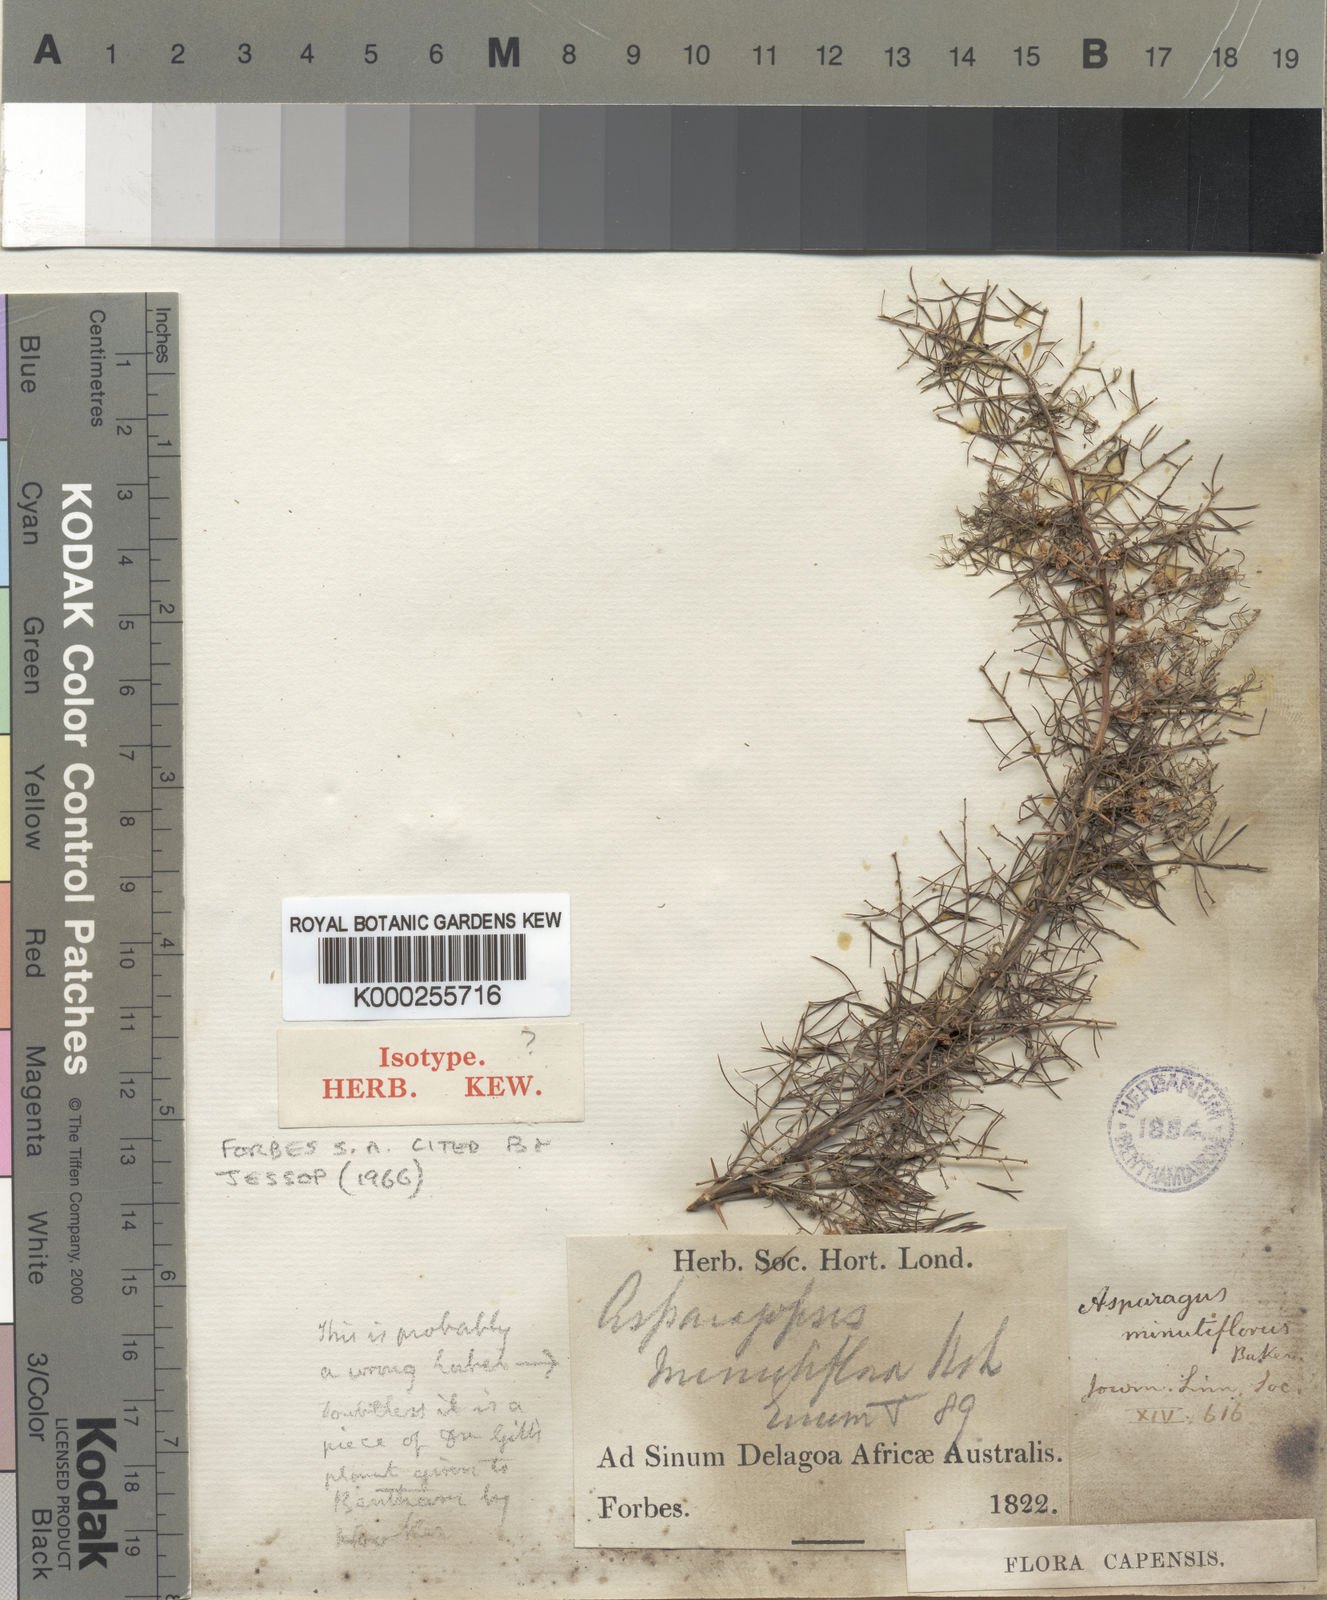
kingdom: Plantae
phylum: Tracheophyta
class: Liliopsida
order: Asparagales
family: Asparagaceae
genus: Asparagus
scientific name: Asparagus minutiflorus
